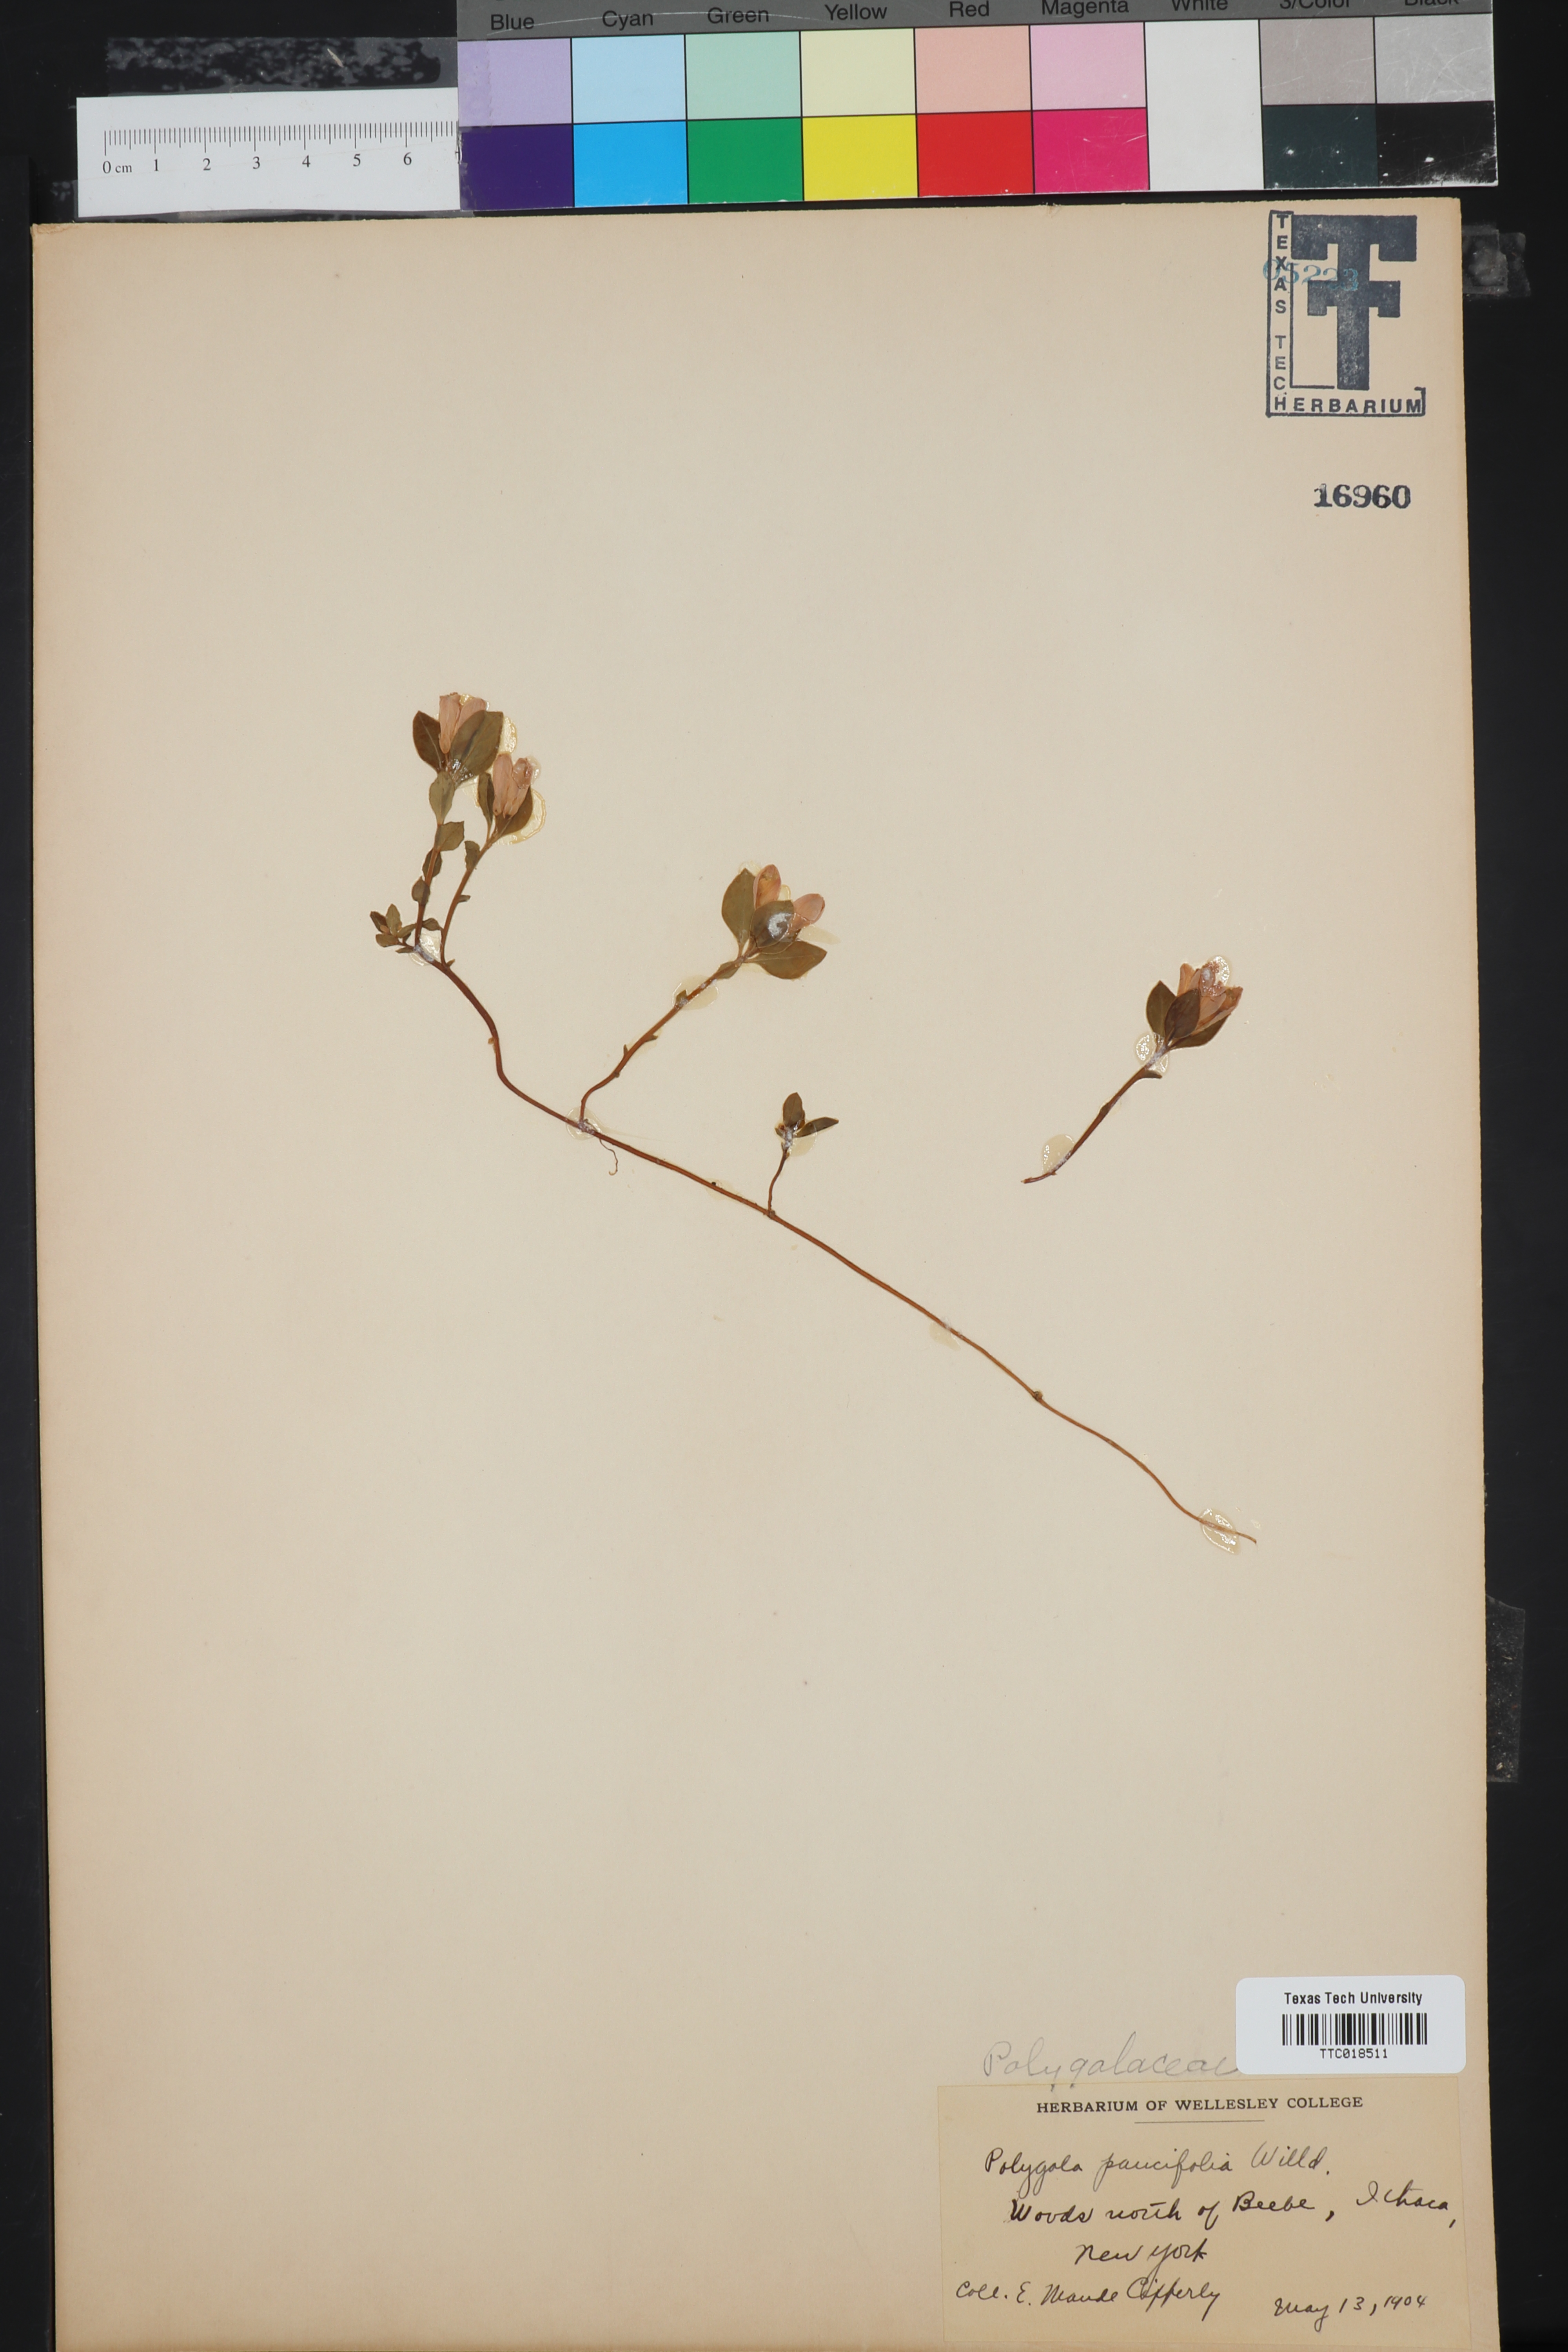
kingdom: Plantae
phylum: Tracheophyta
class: Magnoliopsida
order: Fabales
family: Polygalaceae
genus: Polygaloides
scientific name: Polygaloides paucifolia
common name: Bird-on-the-wing
